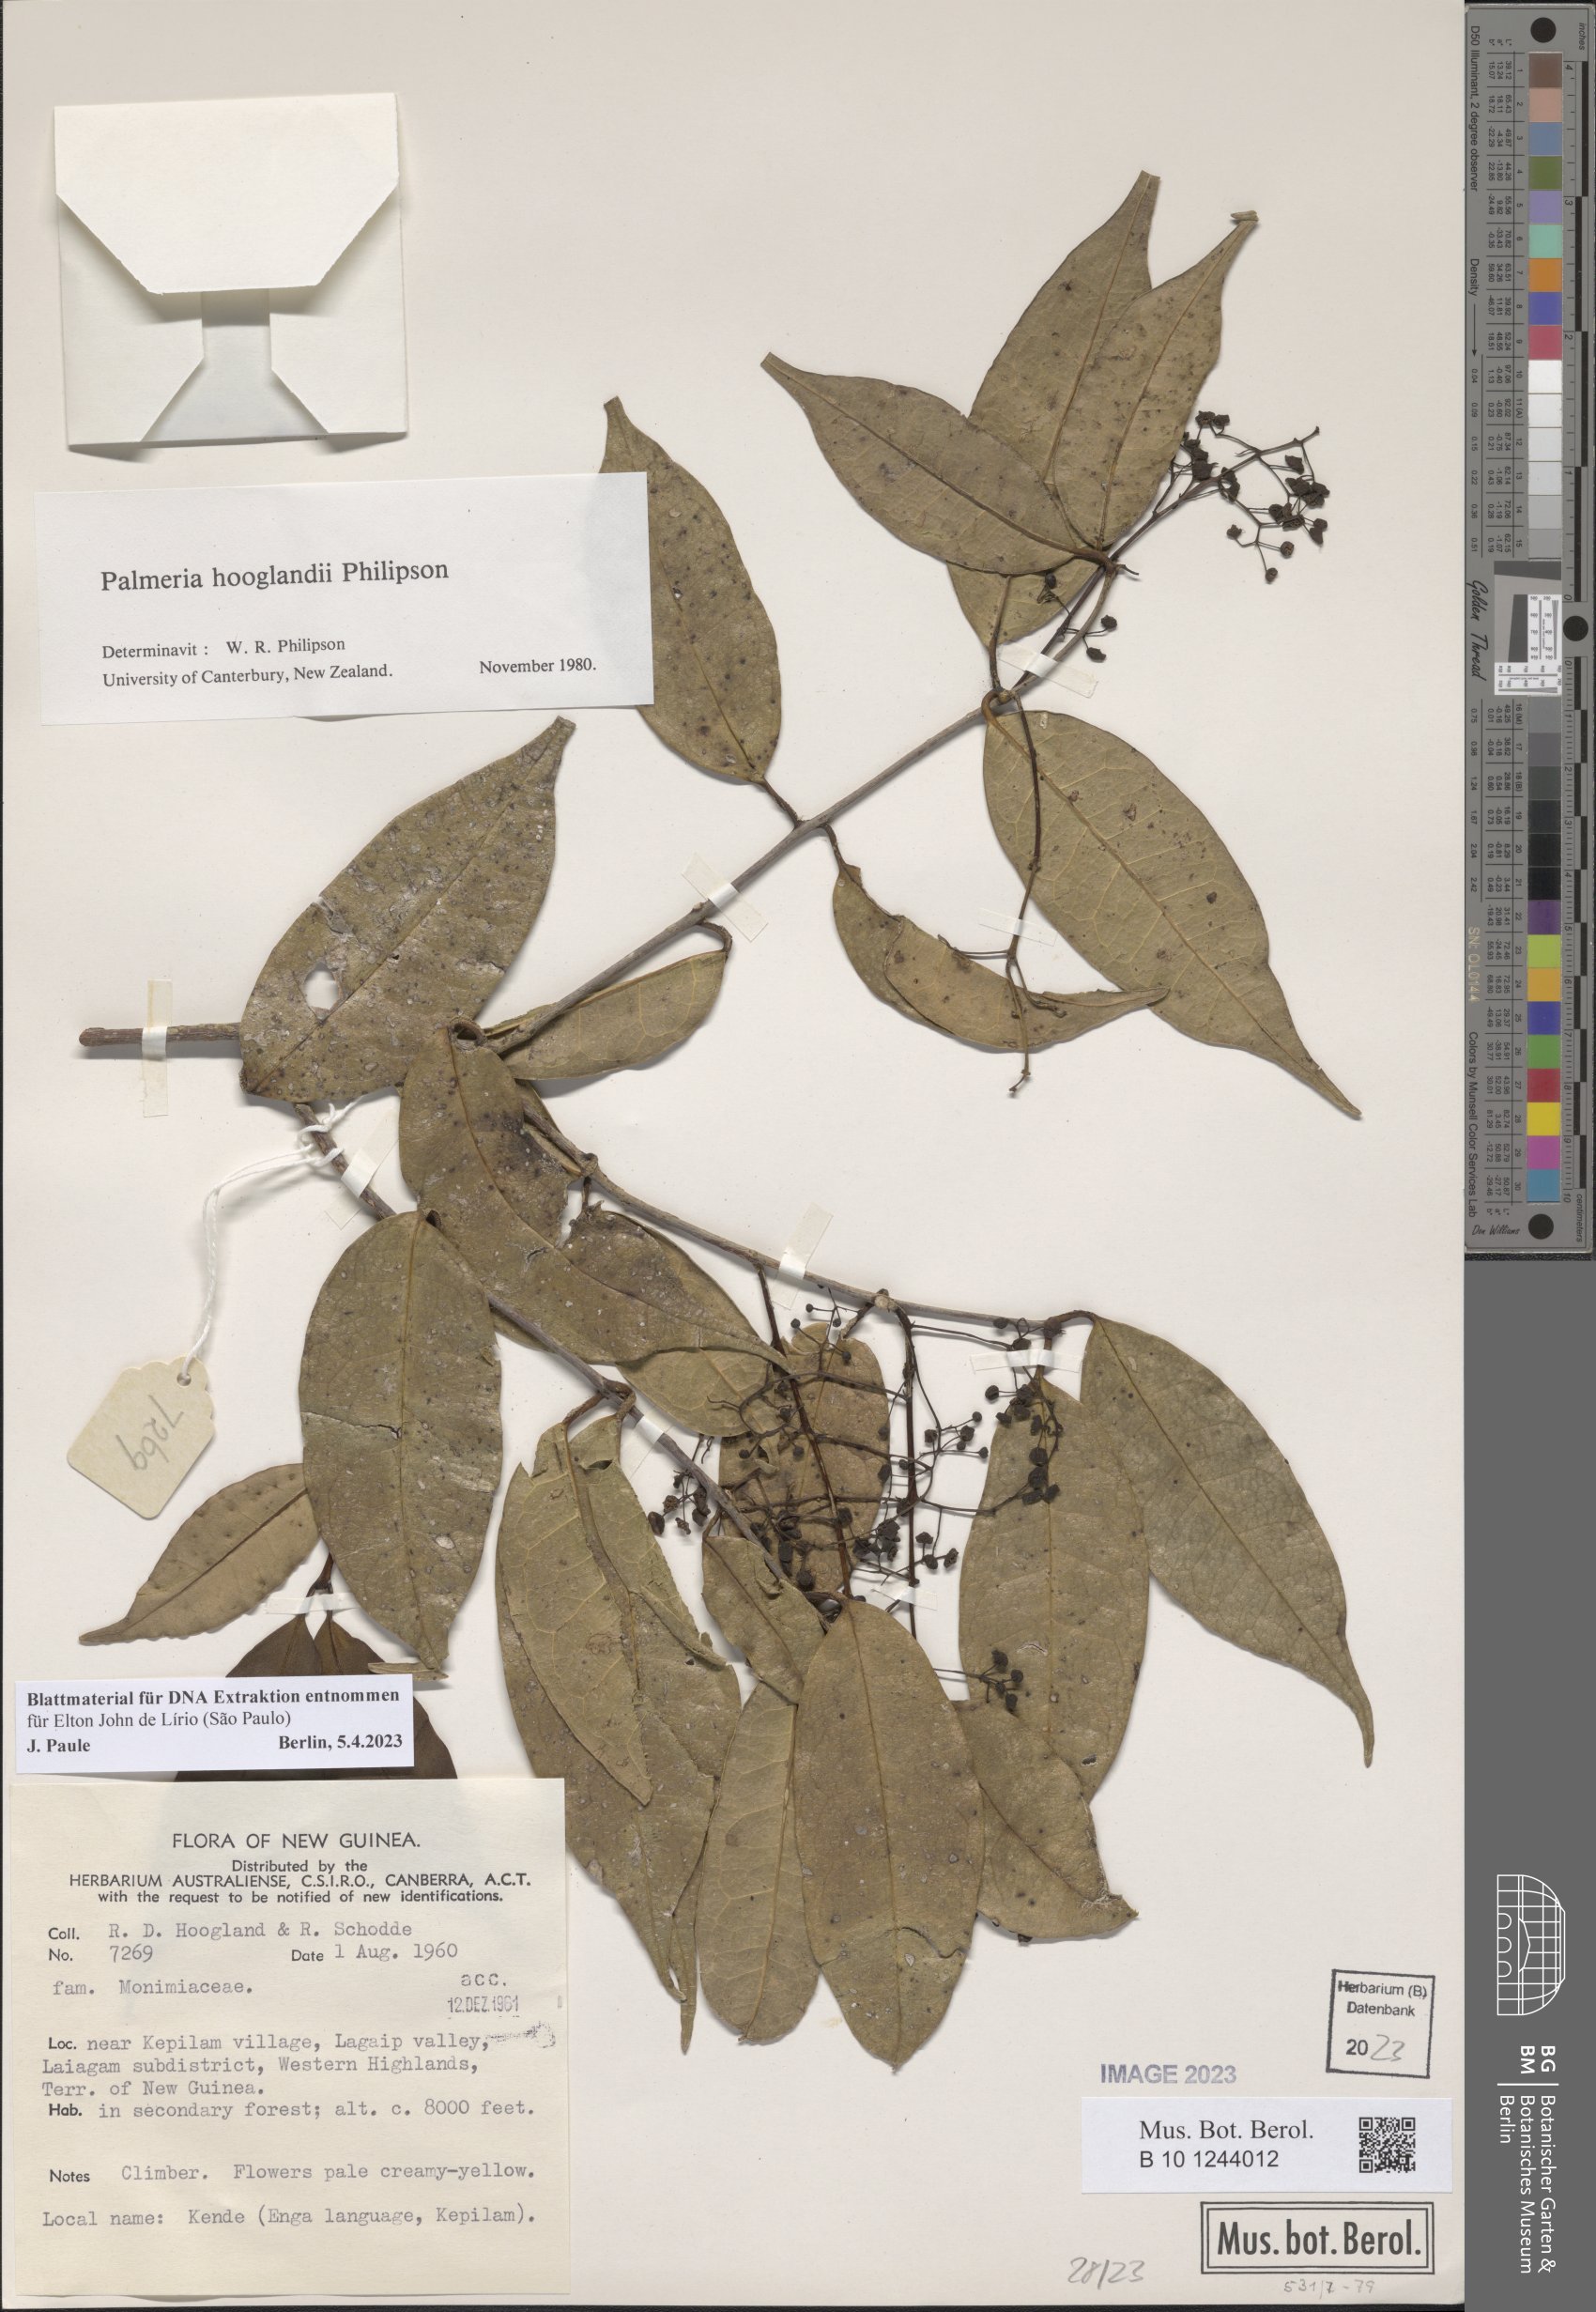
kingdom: Plantae
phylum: Tracheophyta
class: Magnoliopsida
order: Laurales
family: Monimiaceae
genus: Palmeria
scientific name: Palmeria hooglandii
